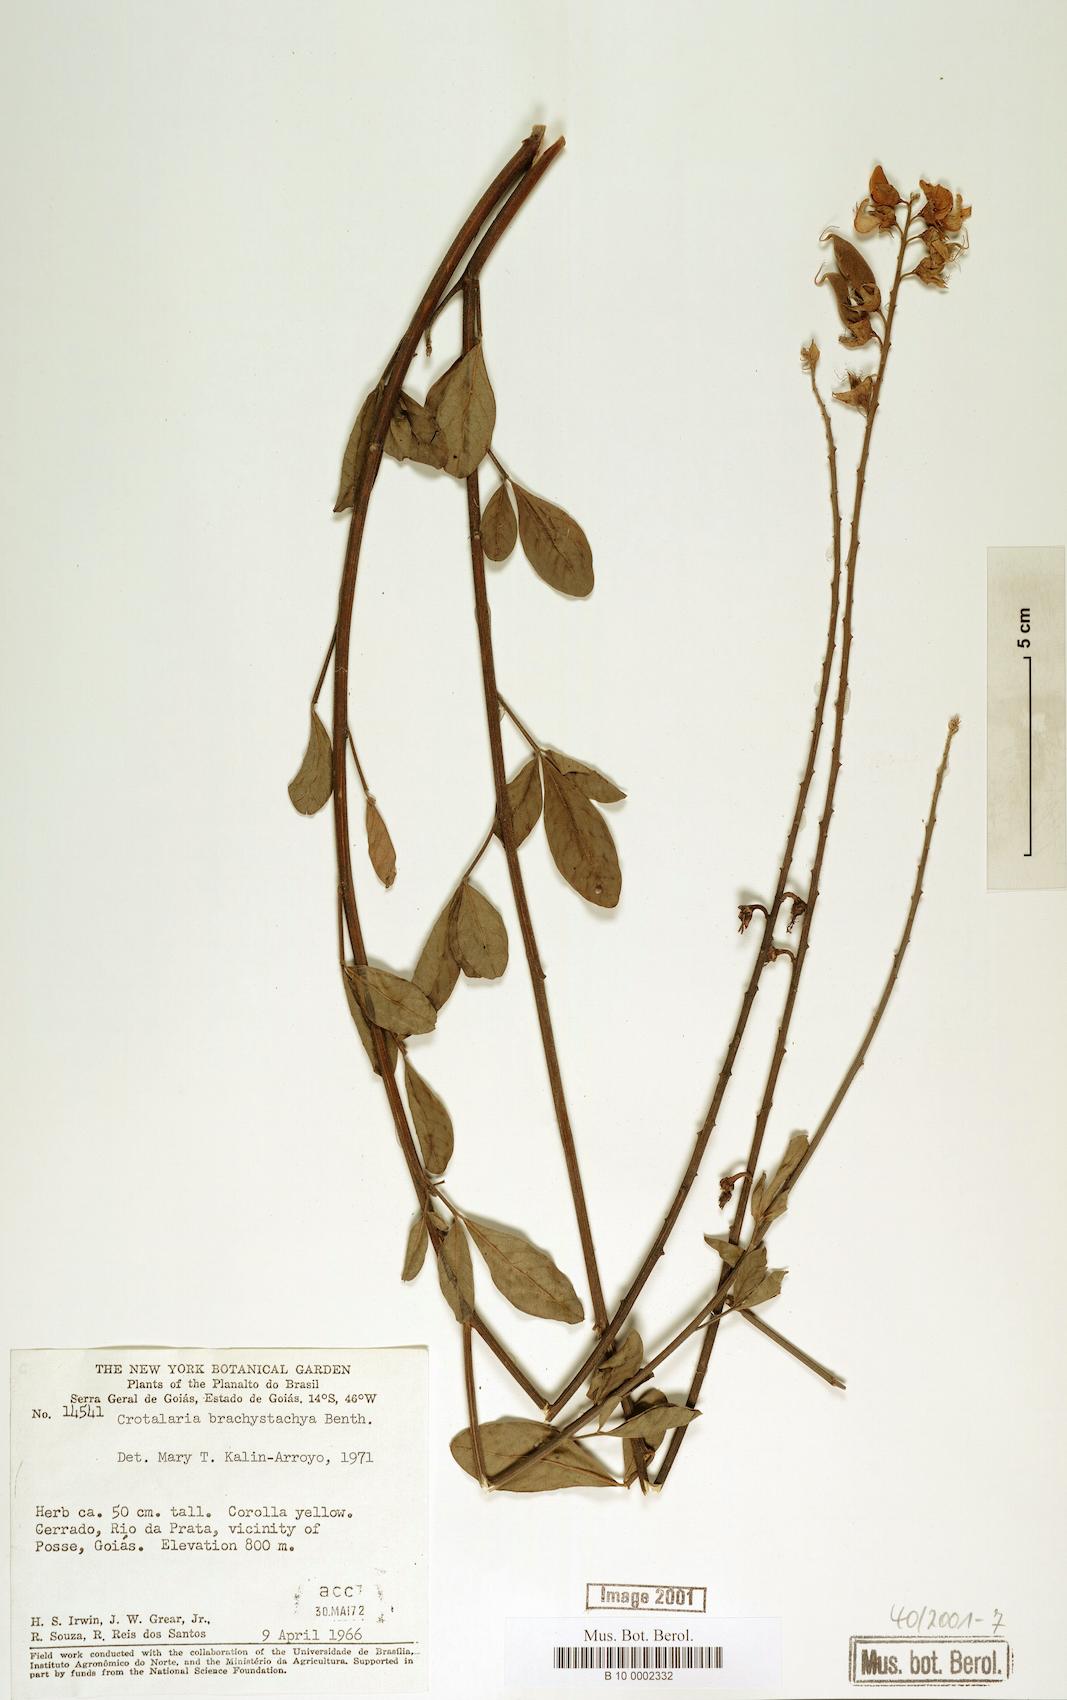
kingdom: Plantae
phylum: Tracheophyta
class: Magnoliopsida
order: Fabales
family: Fabaceae
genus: Crotalaria
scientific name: Crotalaria micans
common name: Caracas rattlebox
